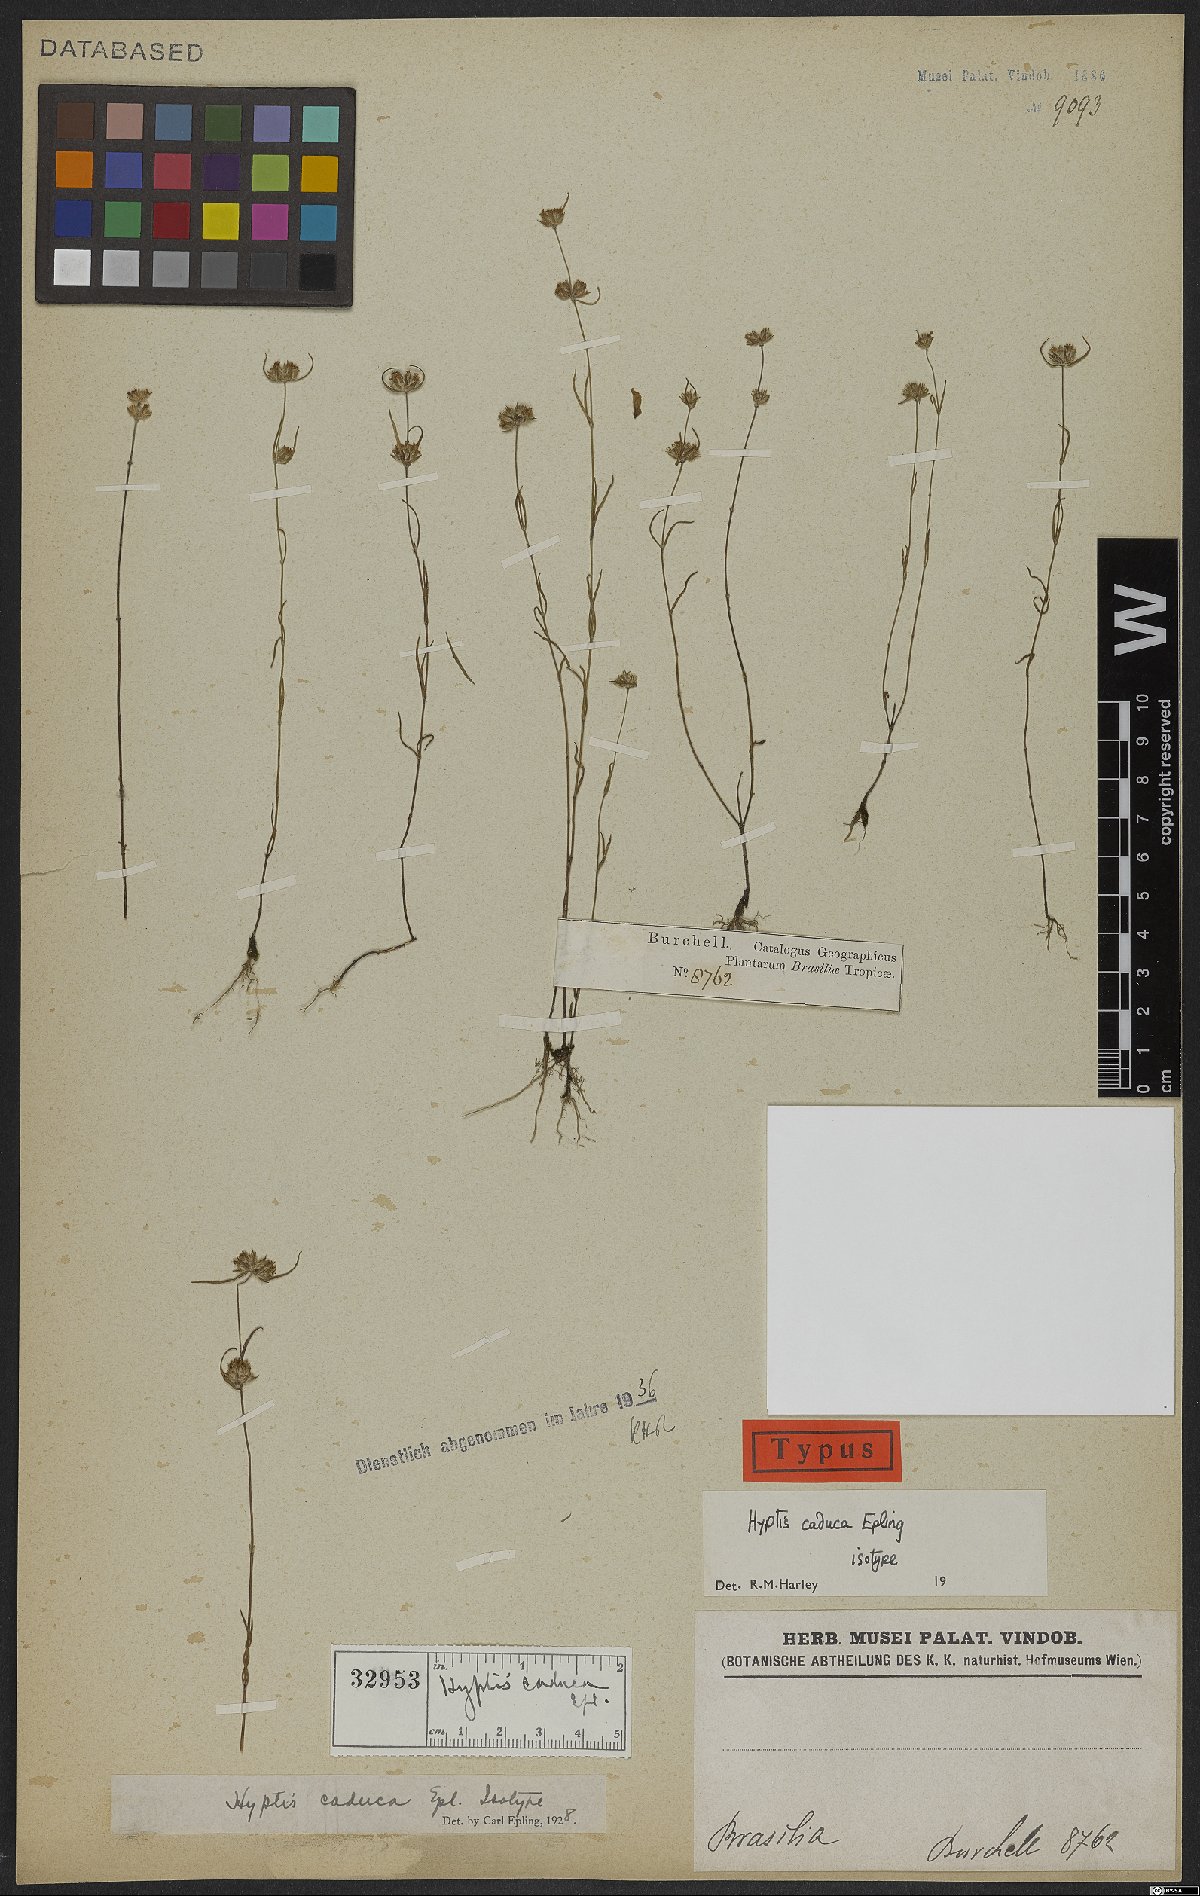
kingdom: Plantae
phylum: Tracheophyta
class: Magnoliopsida
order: Lamiales
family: Lamiaceae
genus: Hyptis
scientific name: Hyptis caduca
